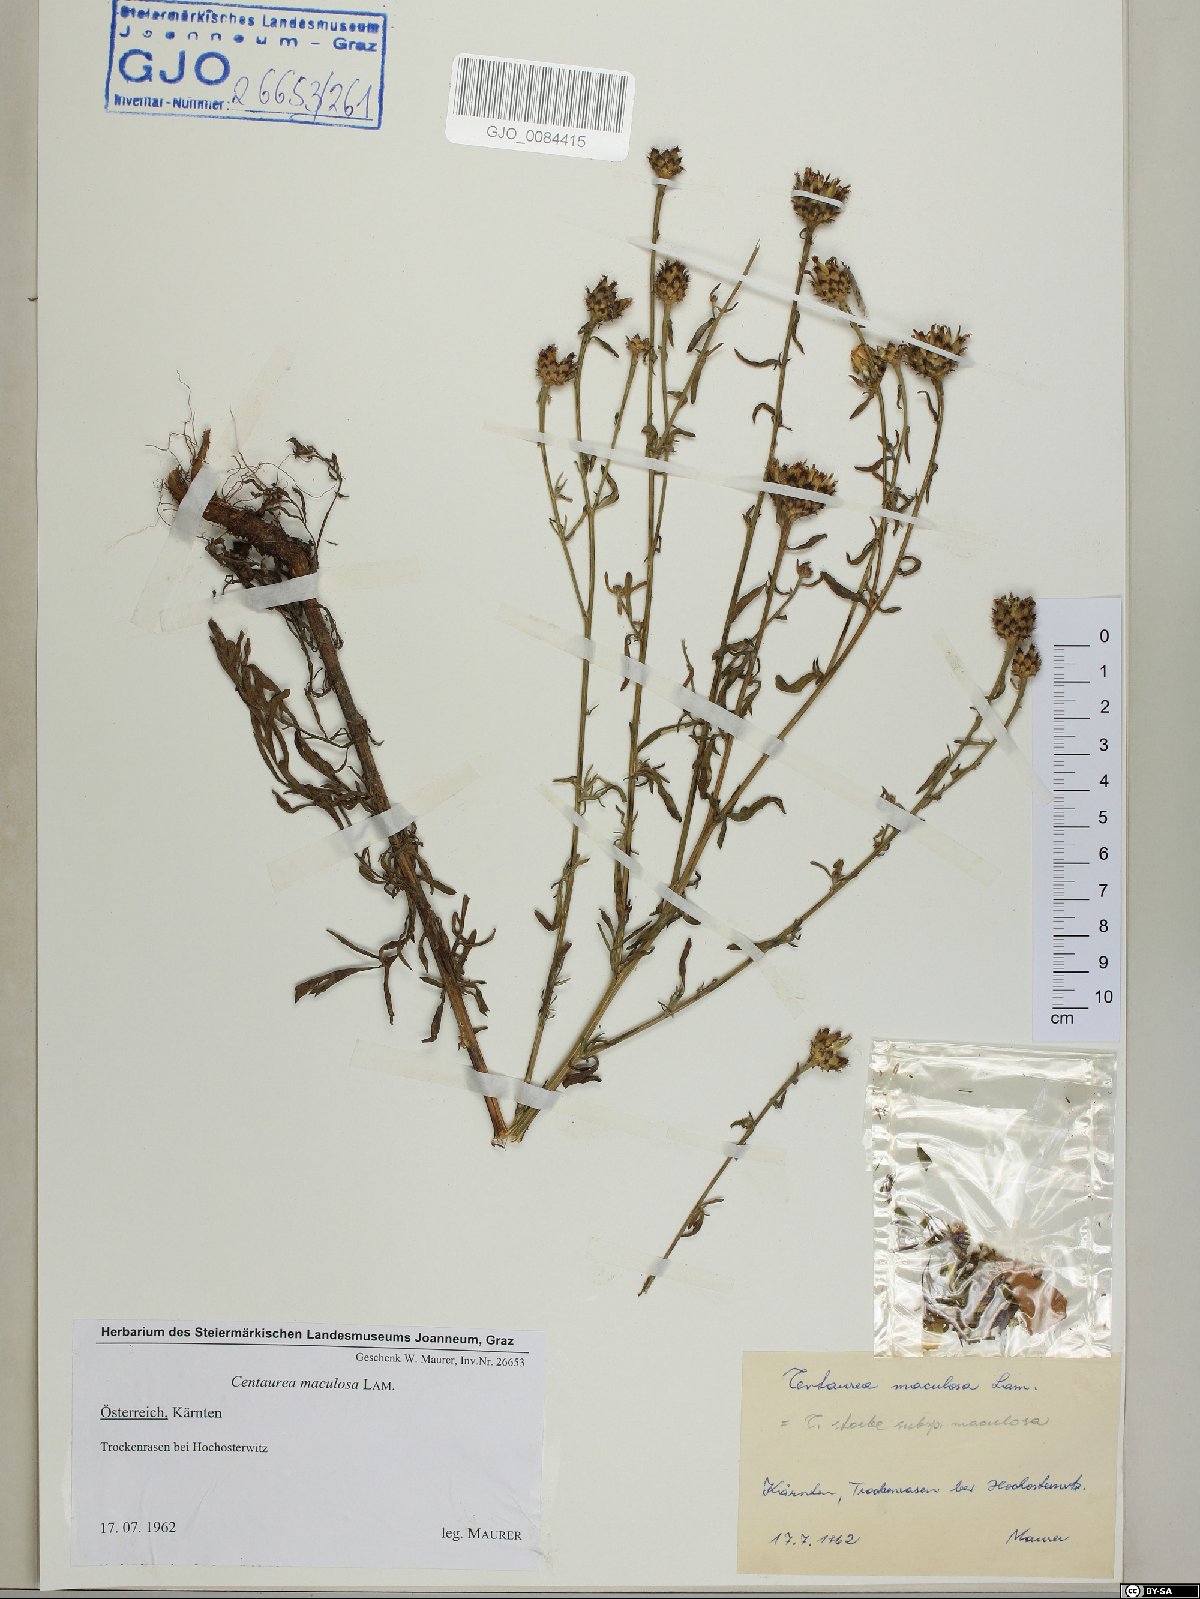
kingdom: Plantae
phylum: Tracheophyta
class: Magnoliopsida
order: Asterales
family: Asteraceae
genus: Centaurea
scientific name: Centaurea stoebe
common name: Spotted knapweed
